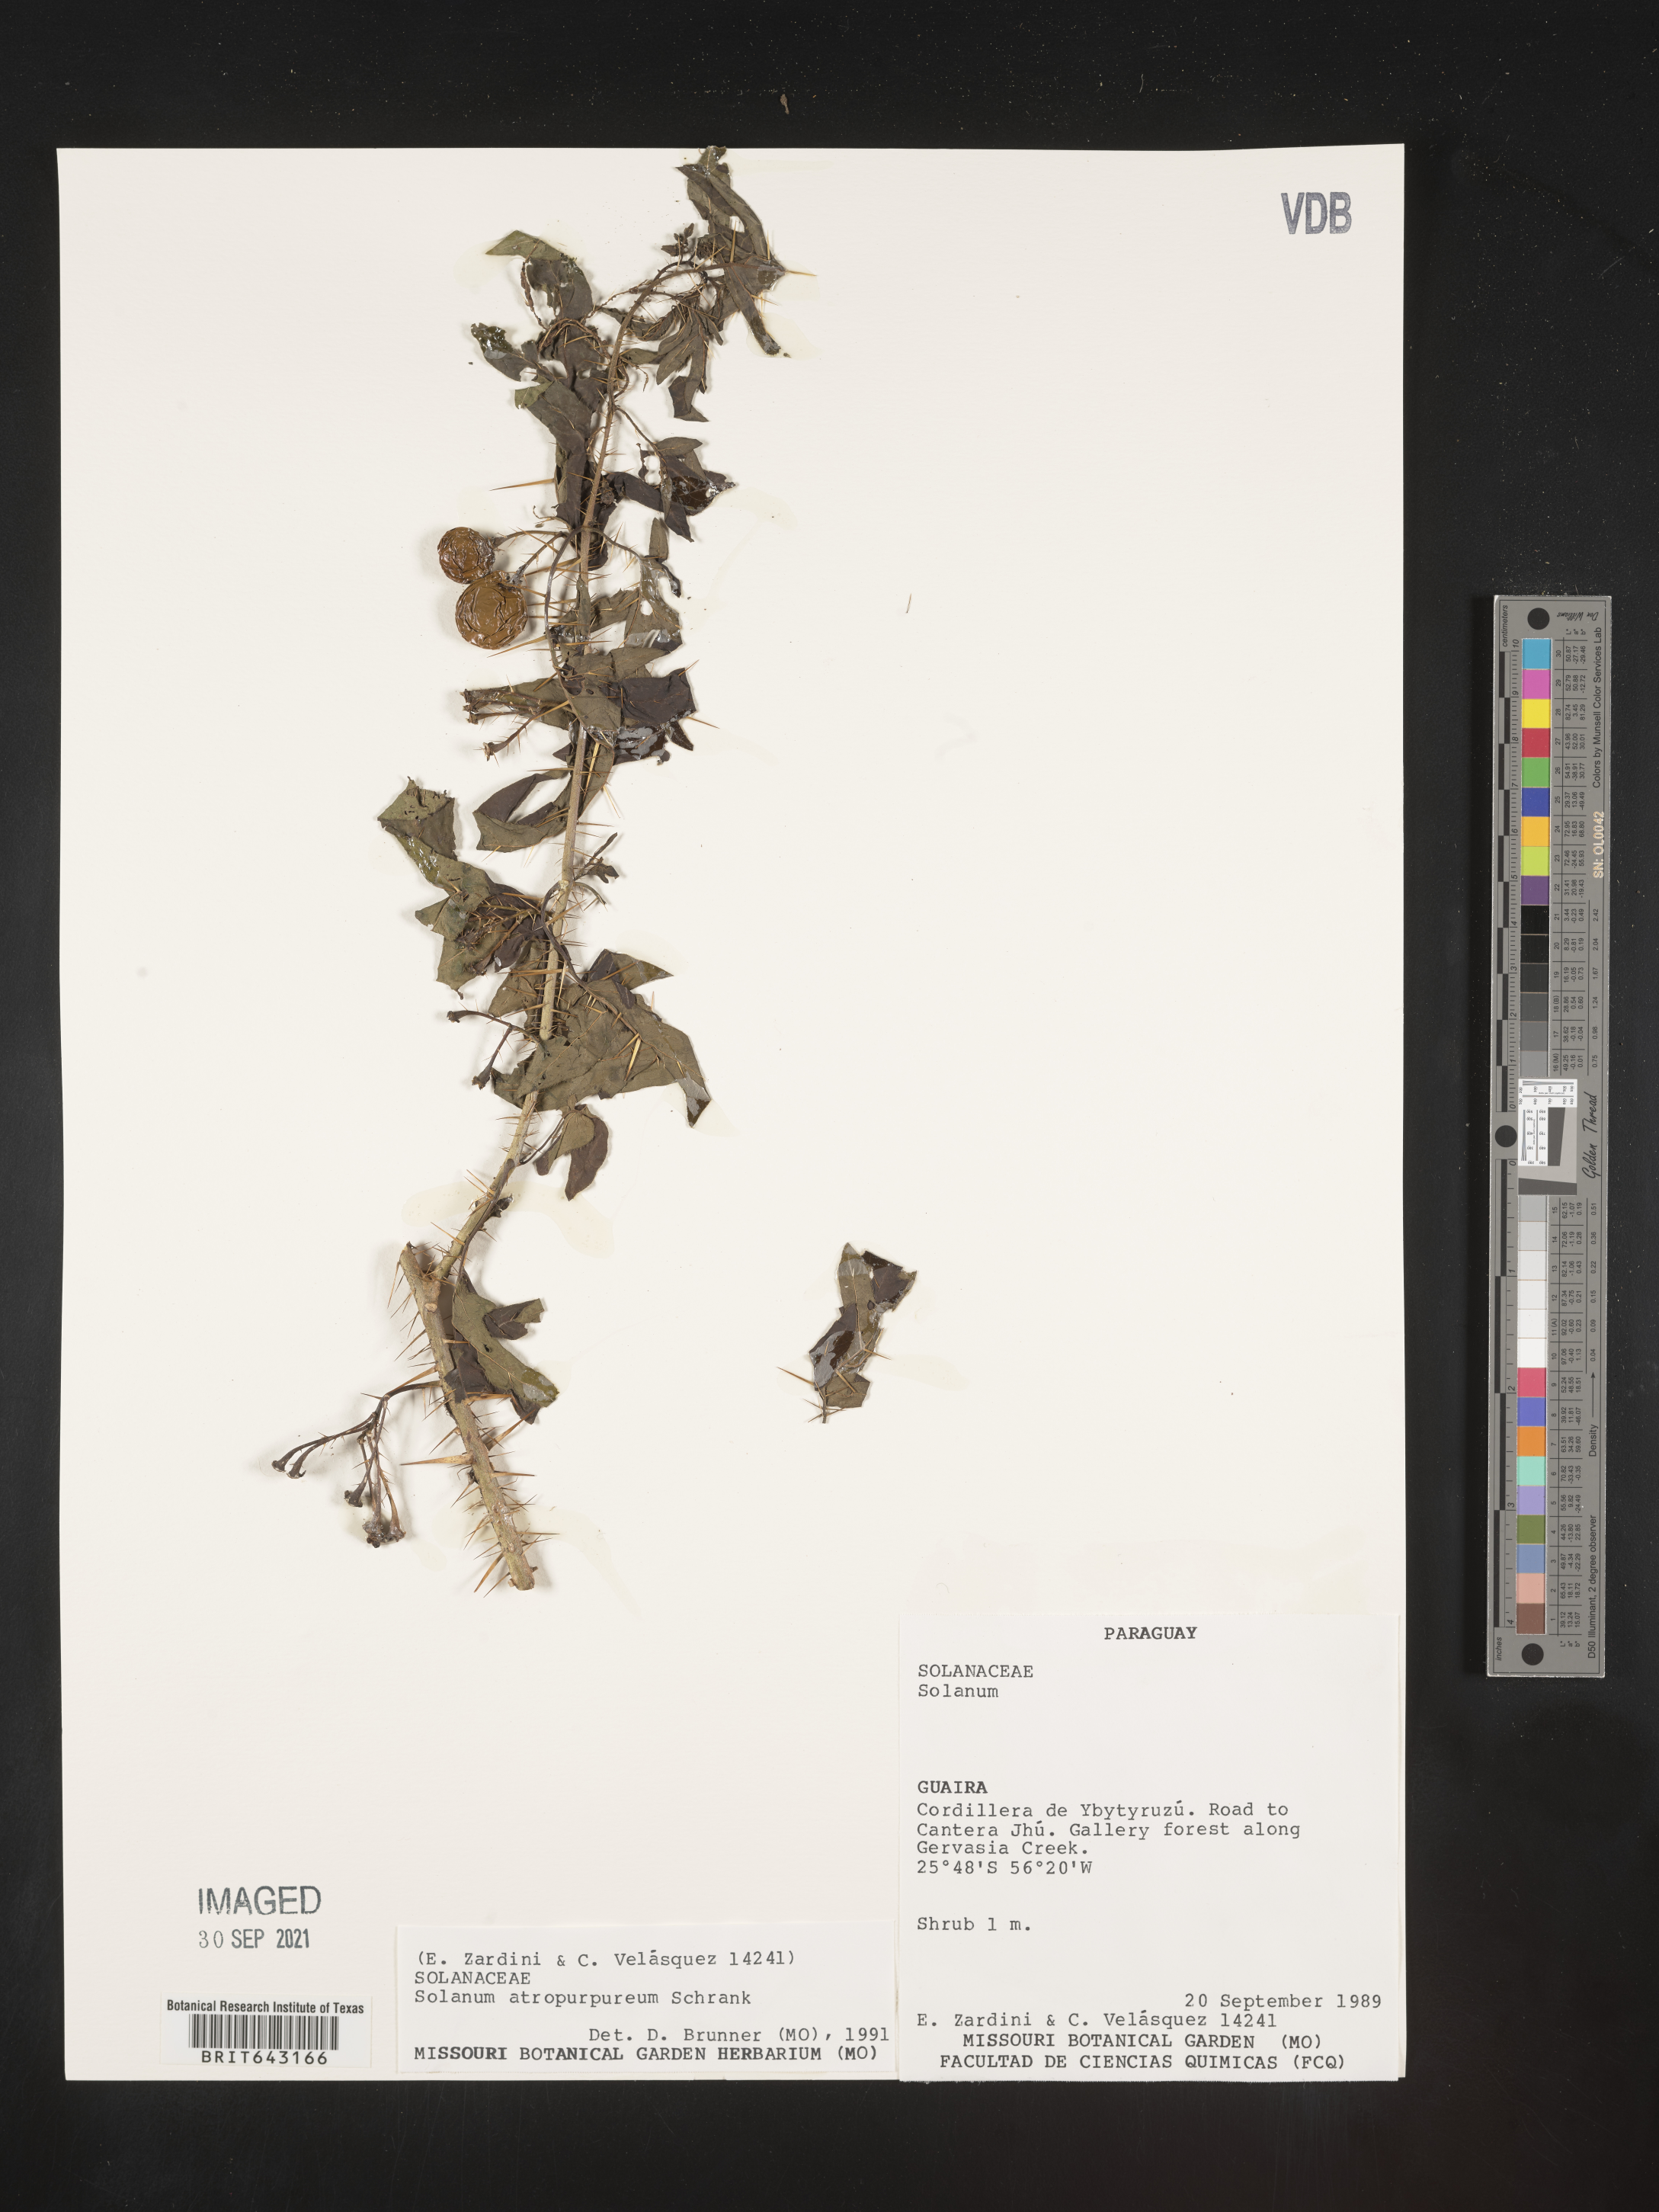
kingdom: Plantae
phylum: Tracheophyta
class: Magnoliopsida
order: Solanales
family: Solanaceae
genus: Solanum
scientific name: Solanum
